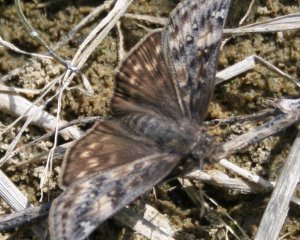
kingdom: Animalia
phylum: Arthropoda
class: Insecta
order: Lepidoptera
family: Hesperiidae
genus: Gesta
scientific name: Gesta
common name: Juvenal's Duskywing
